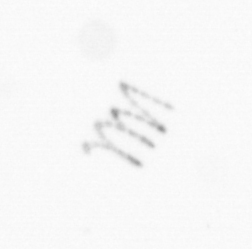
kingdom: Chromista
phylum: Ochrophyta
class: Bacillariophyceae
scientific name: Bacillariophyceae
